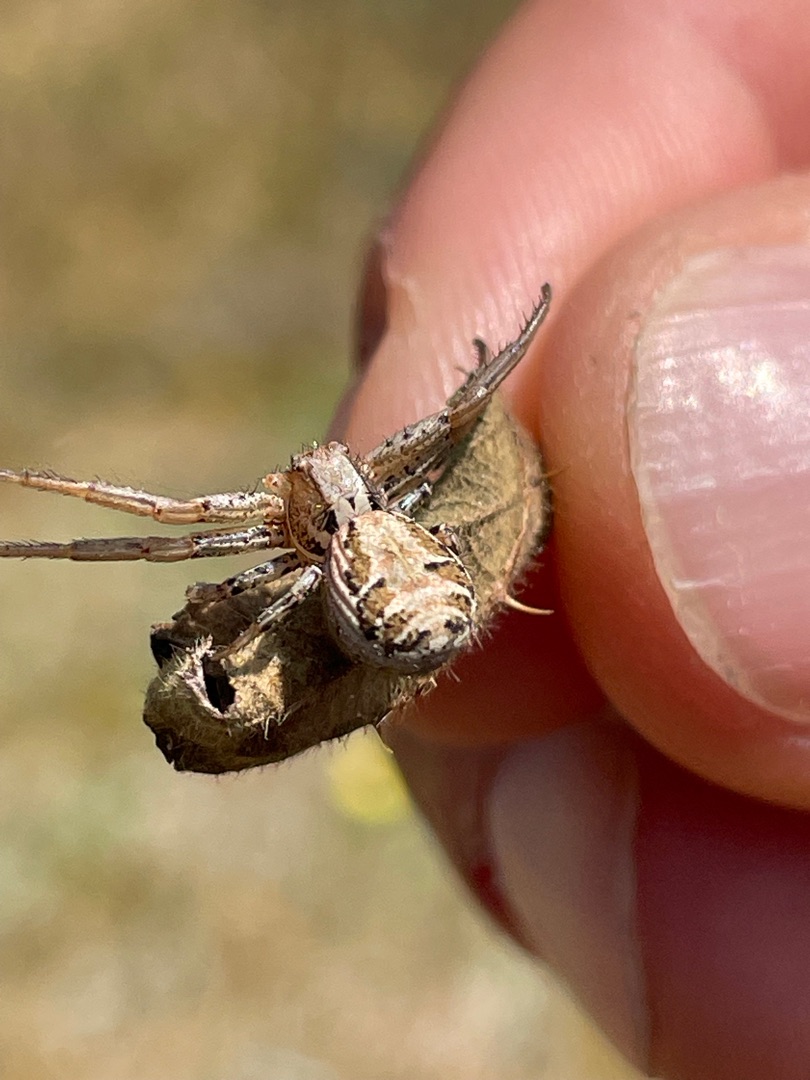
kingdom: Animalia
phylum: Arthropoda
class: Arachnida
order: Araneae
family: Thomisidae
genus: Xysticus
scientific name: Xysticus kochi
